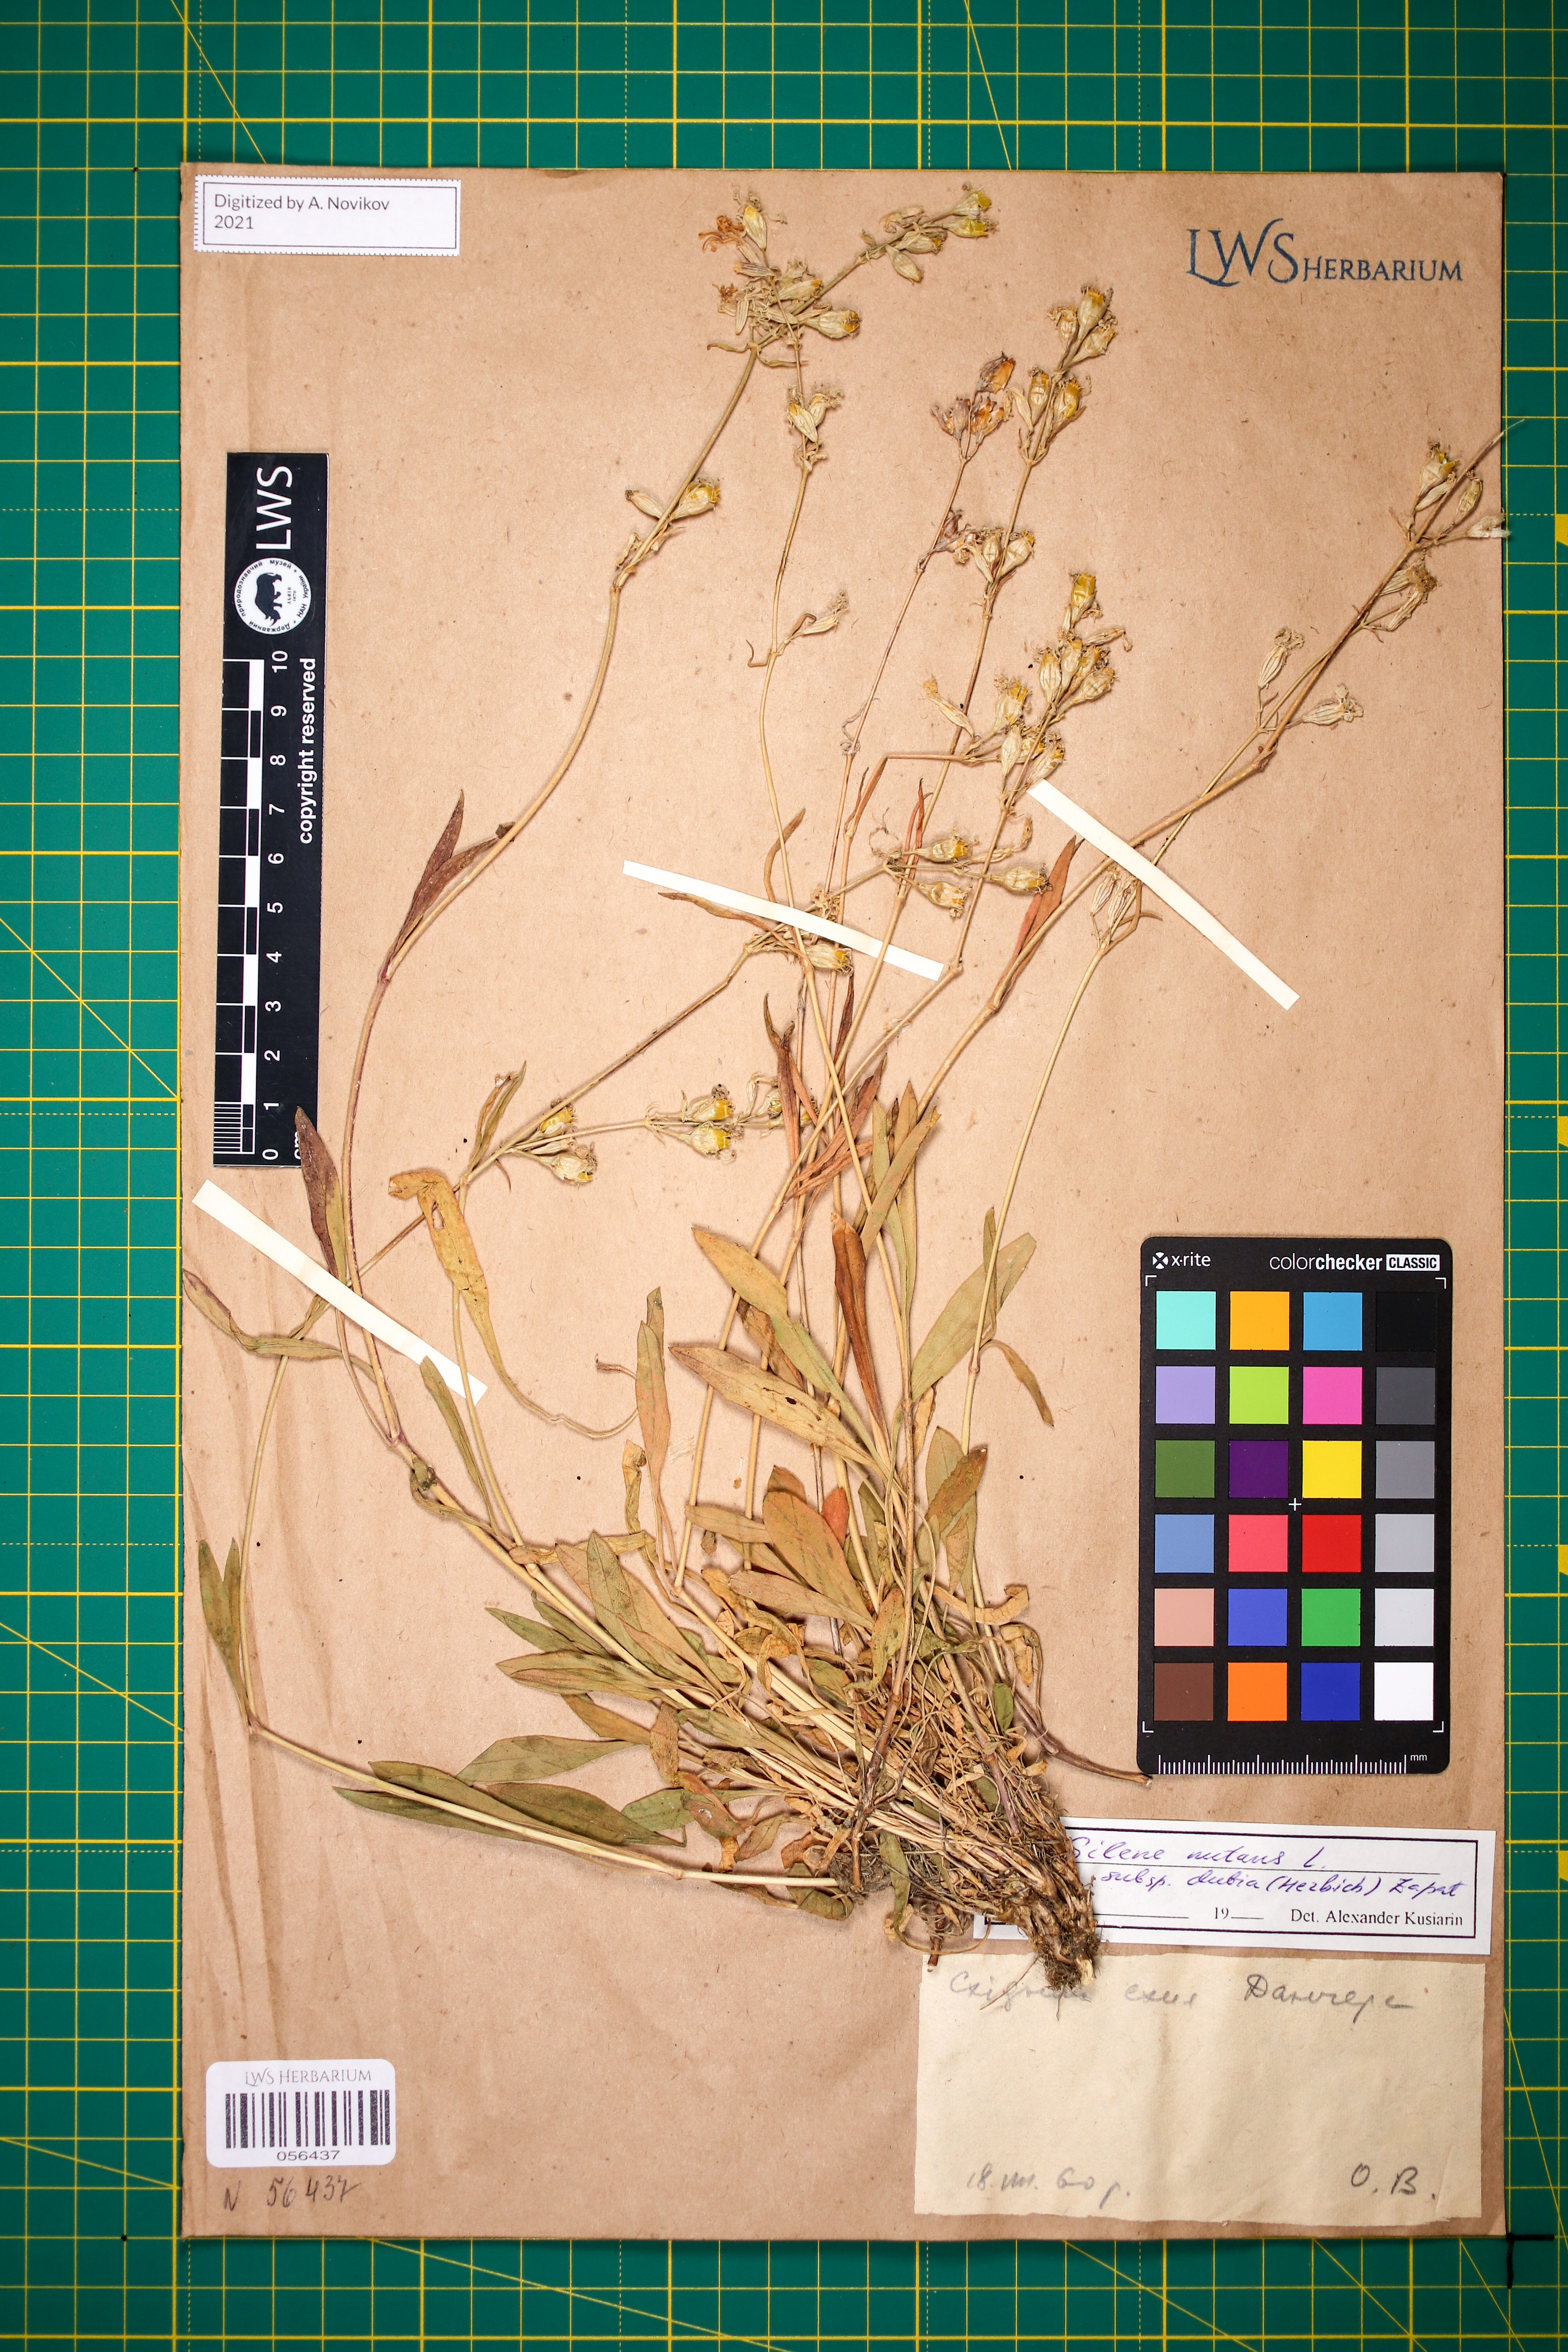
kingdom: Plantae
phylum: Tracheophyta
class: Magnoliopsida
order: Caryophyllales
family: Caryophyllaceae
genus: Silene
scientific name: Silene nutans
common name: Nottingham catchfly
